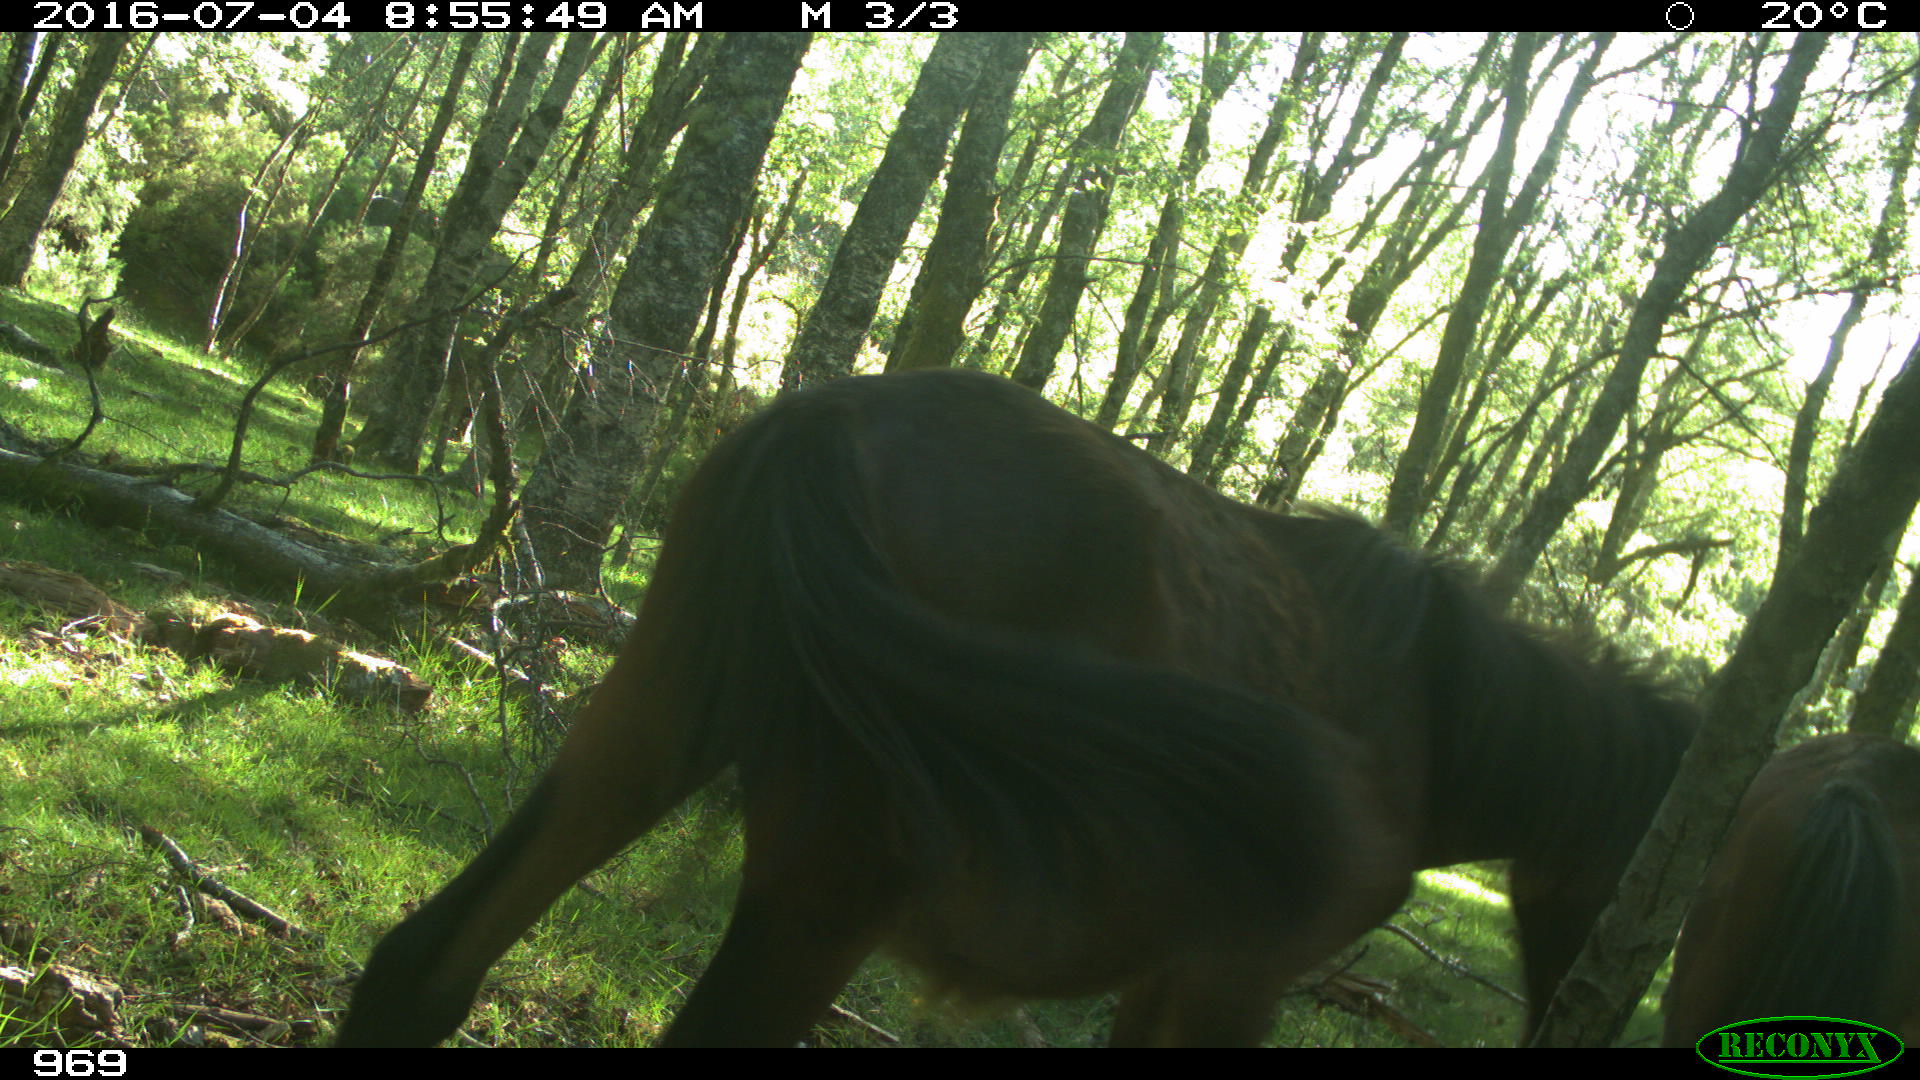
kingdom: Animalia
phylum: Chordata
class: Mammalia
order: Perissodactyla
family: Equidae
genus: Equus
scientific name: Equus caballus
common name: Horse
